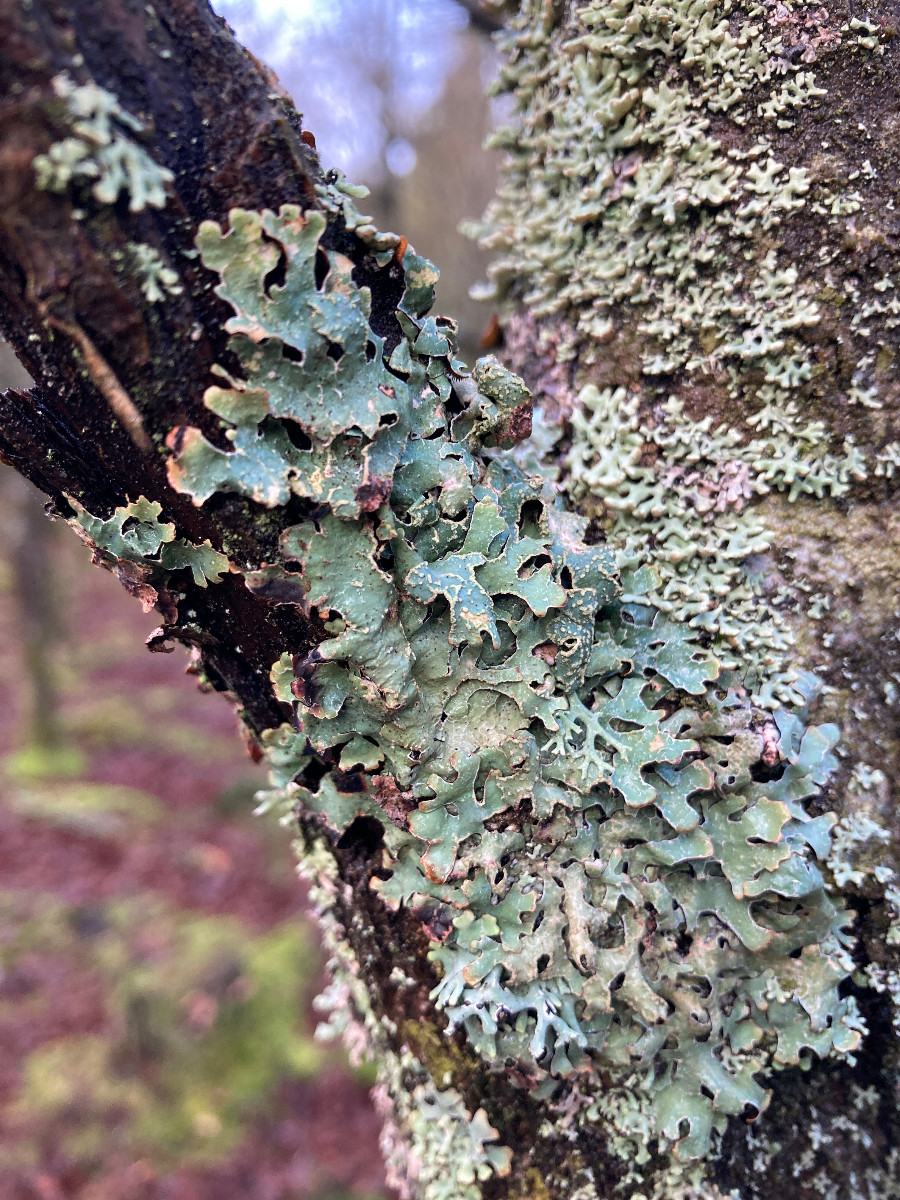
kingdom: Fungi
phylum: Ascomycota
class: Lecanoromycetes
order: Lecanorales
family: Parmeliaceae
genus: Parmelia
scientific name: Parmelia sulcata
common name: rynket skållav
